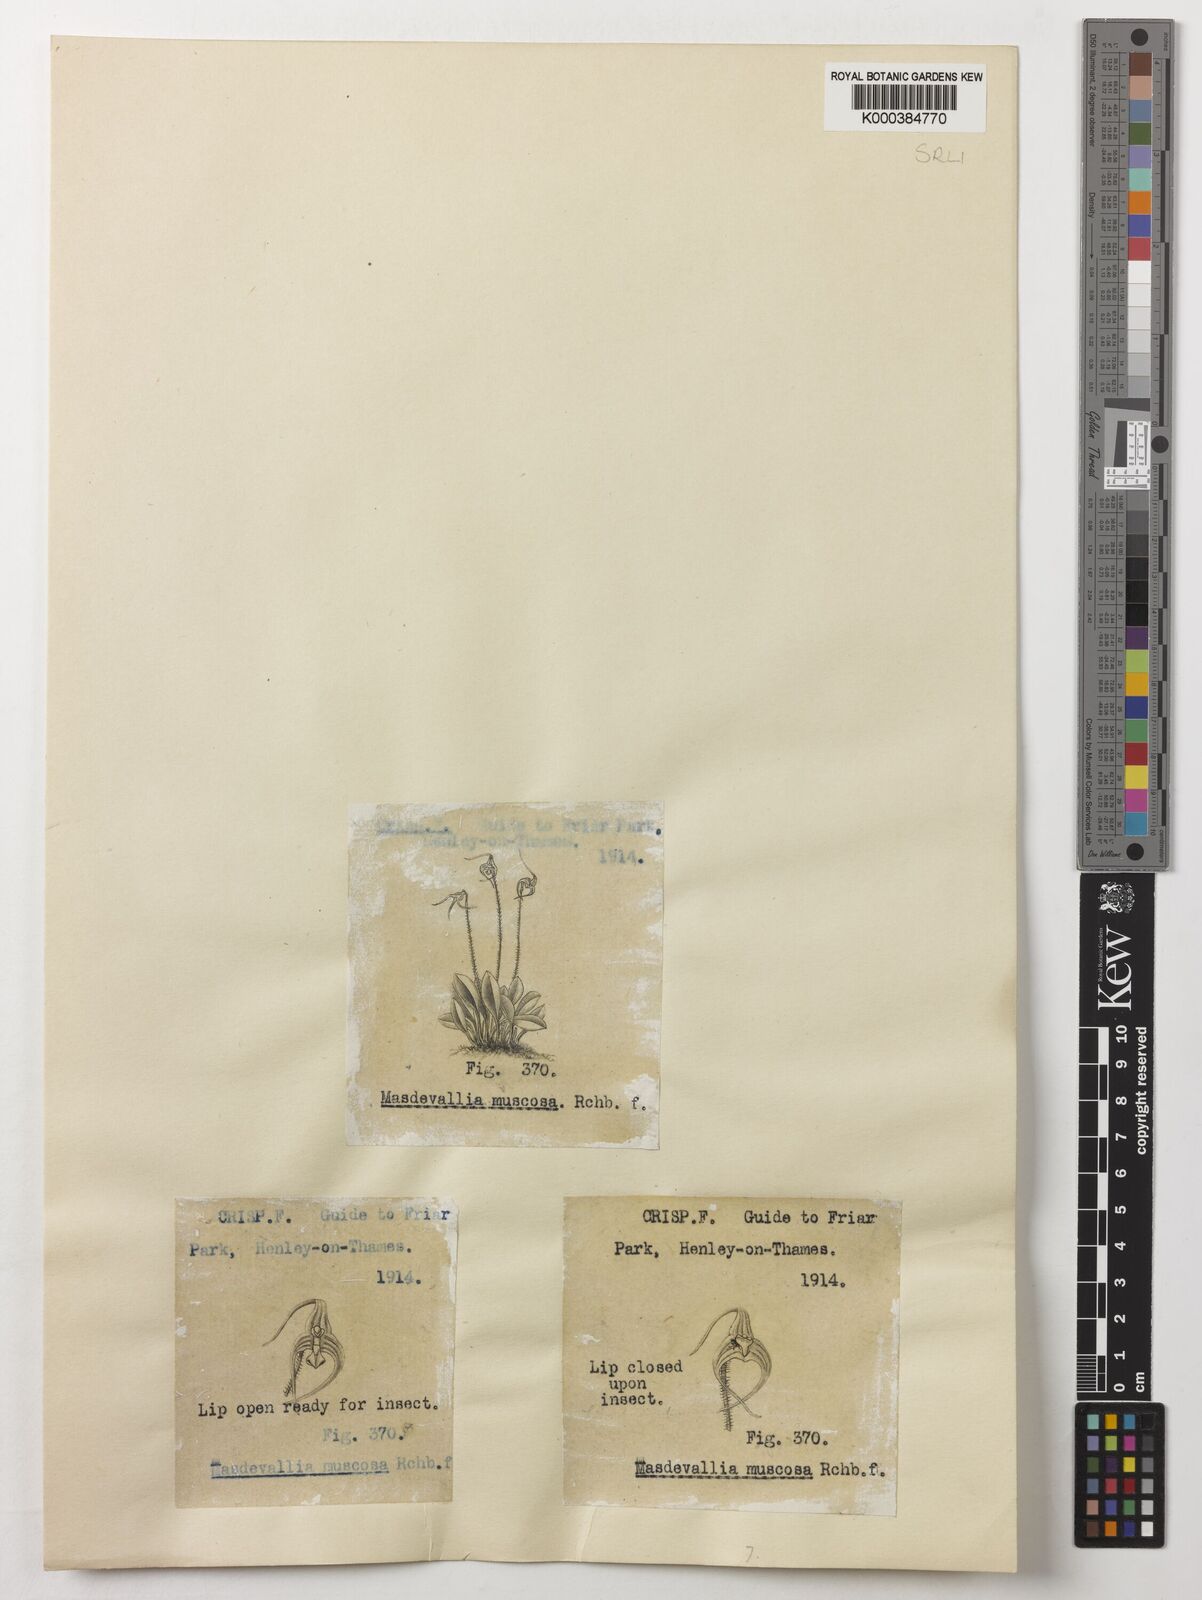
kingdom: Plantae
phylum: Tracheophyta
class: Liliopsida
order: Asparagales
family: Orchidaceae
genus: Porroglossum
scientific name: Porroglossum muscosum
